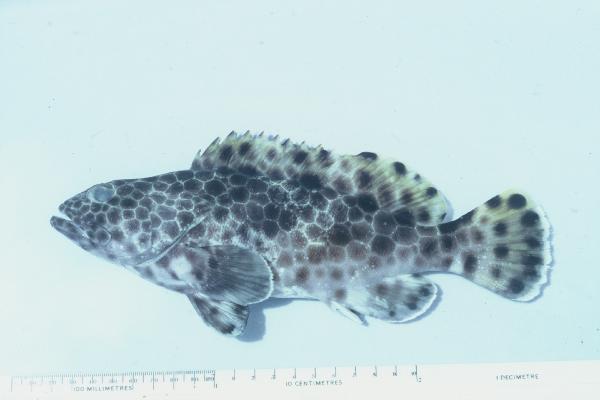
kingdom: Animalia
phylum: Chordata
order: Perciformes
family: Serranidae
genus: Epinephelus
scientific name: Epinephelus macrospilos
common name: Snubnose grouper
